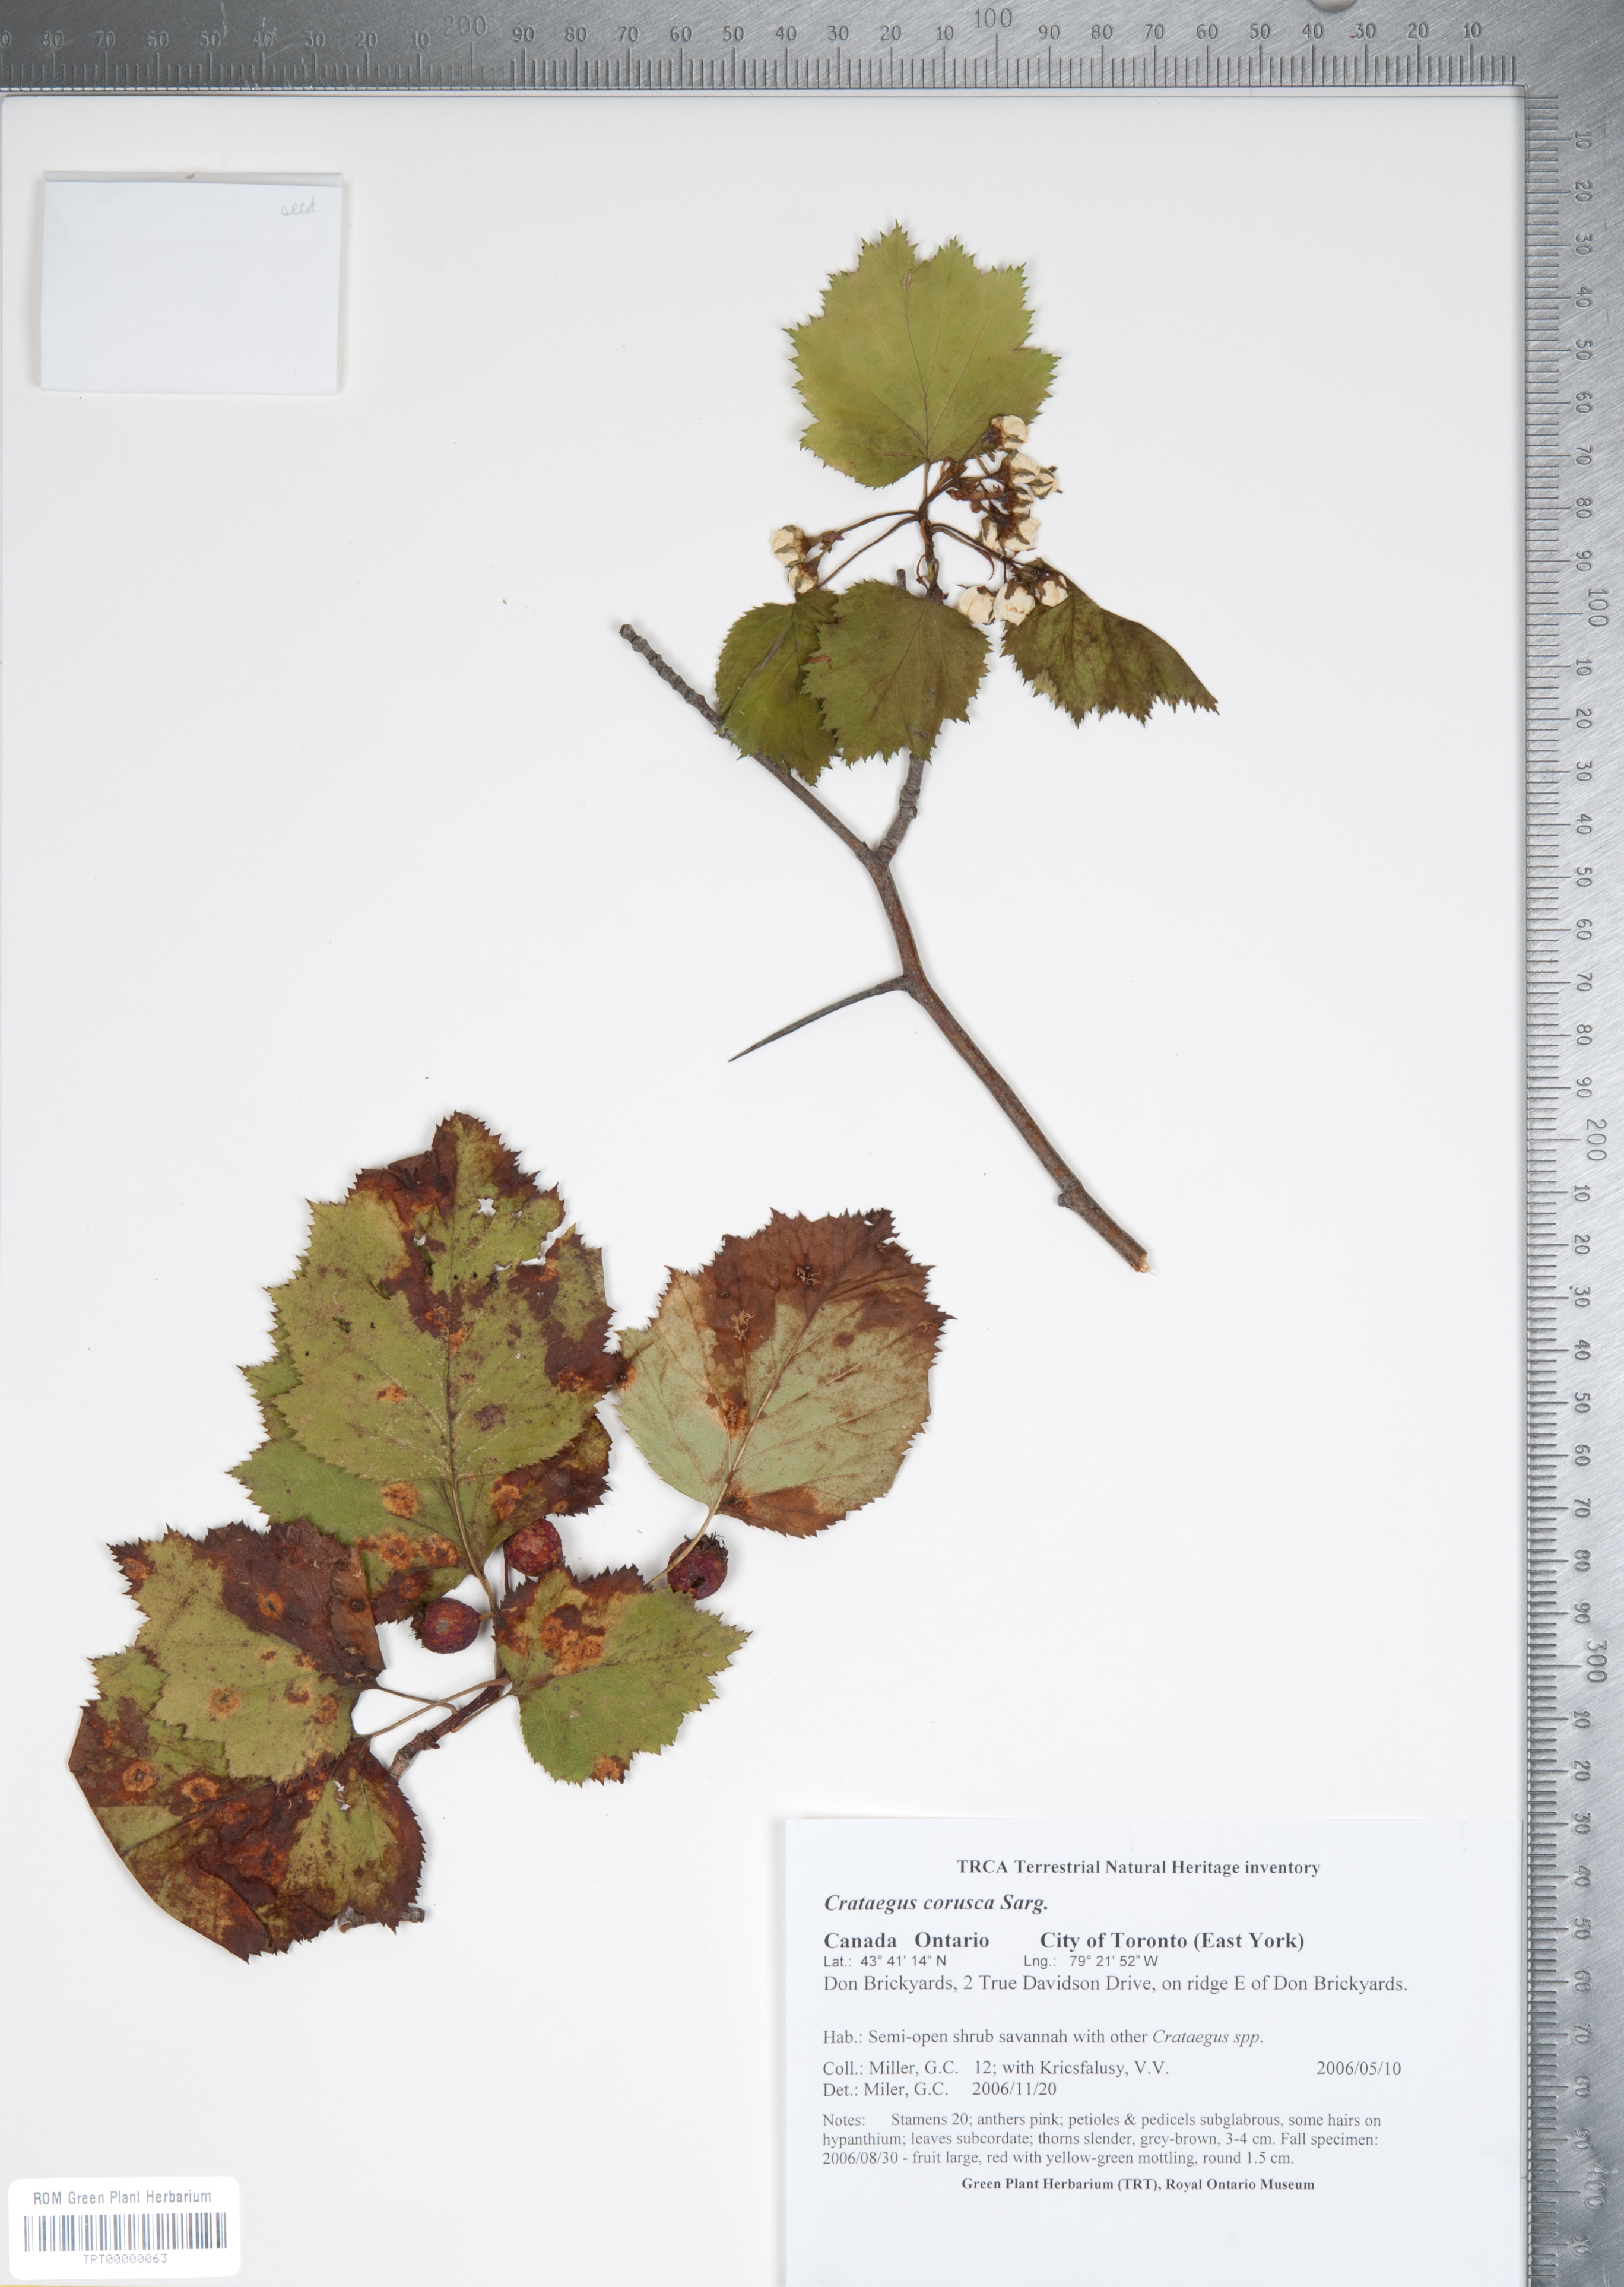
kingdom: Plantae
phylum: Tracheophyta
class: Magnoliopsida
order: Rosales
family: Rosaceae
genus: Crataegus
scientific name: Crataegus corusca
